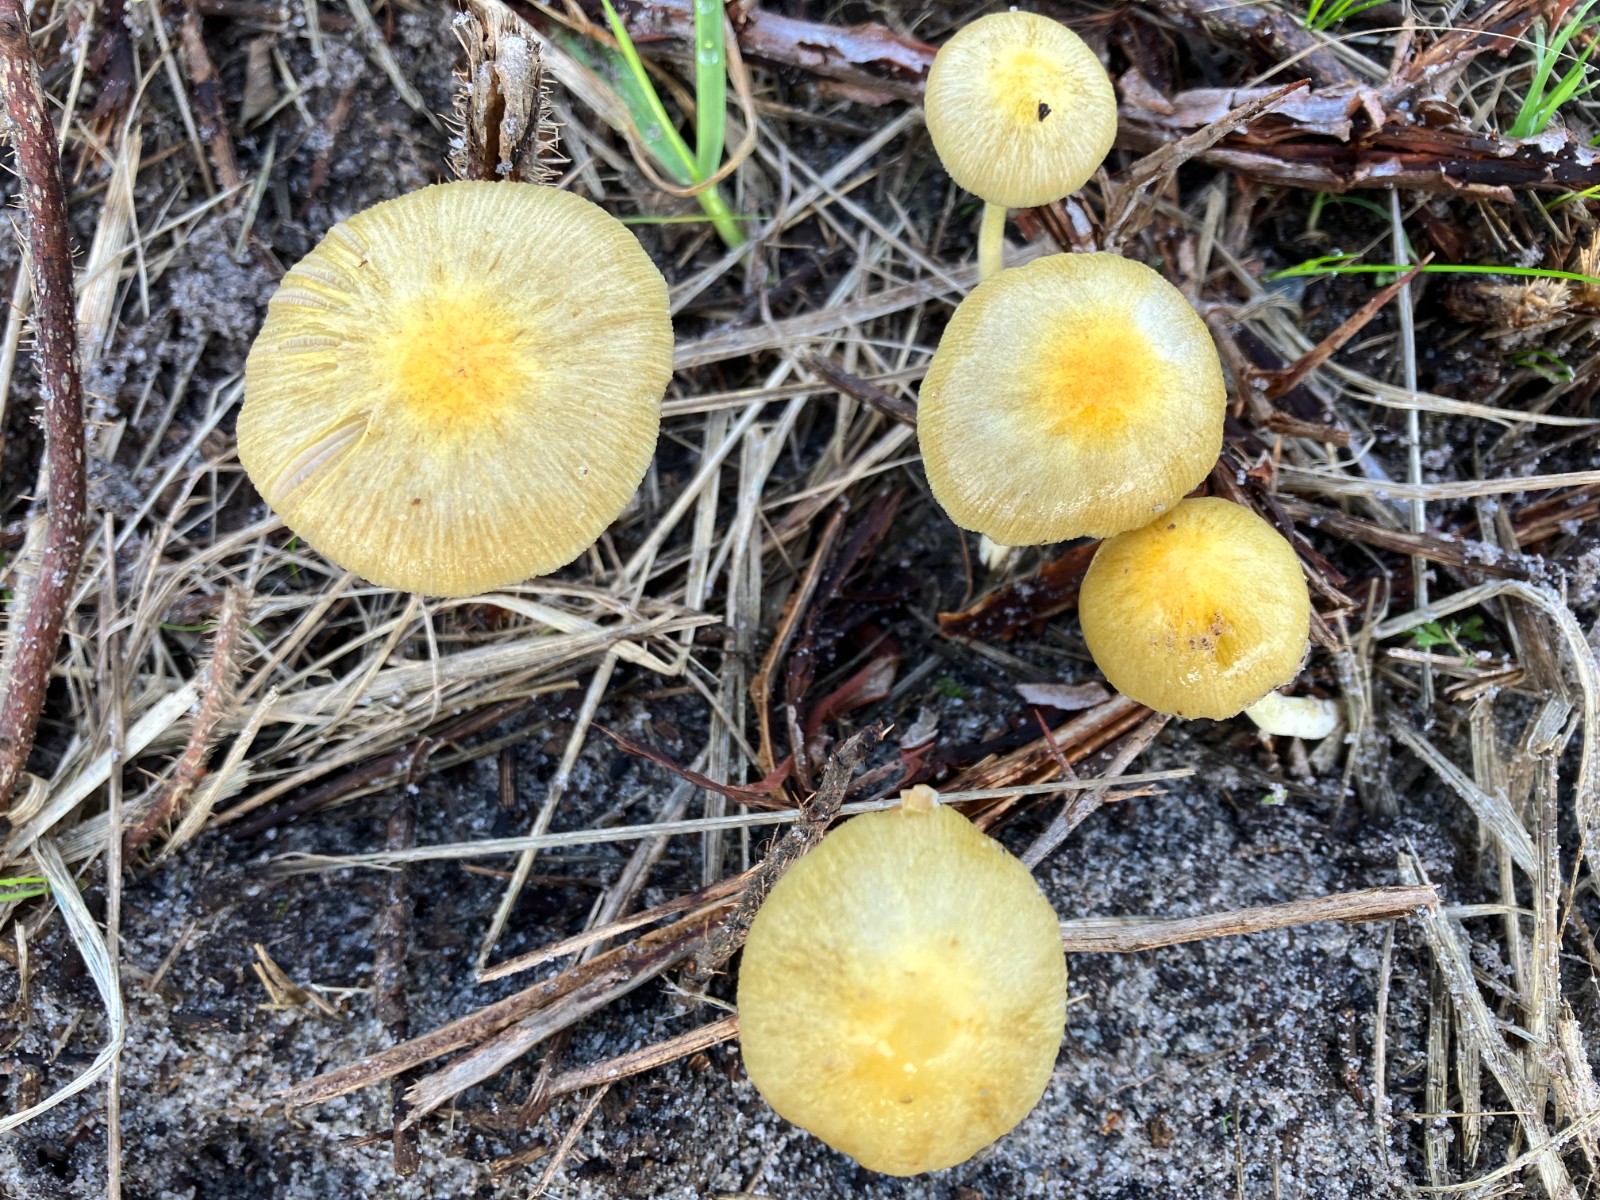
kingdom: Fungi
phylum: Basidiomycota
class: Agaricomycetes
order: Agaricales
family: Bolbitiaceae
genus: Bolbitius
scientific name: Bolbitius titubans
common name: almindelig gulhat
